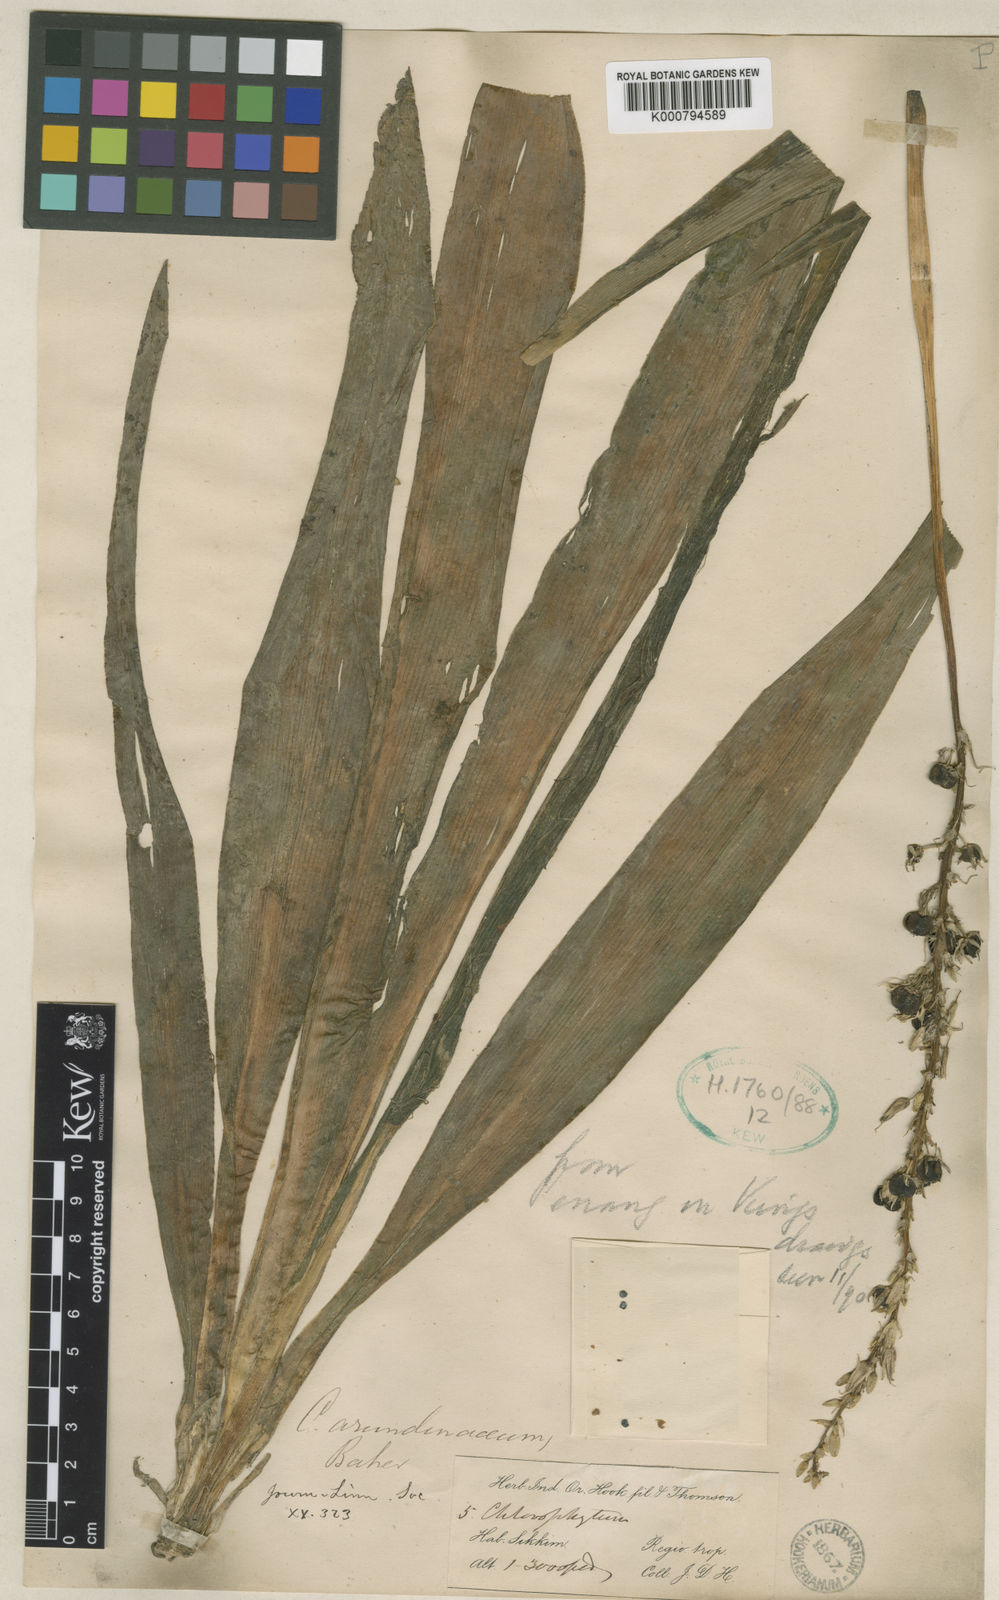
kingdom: Plantae
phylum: Tracheophyta
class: Liliopsida
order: Asparagales
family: Asparagaceae
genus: Chlorophytum
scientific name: Chlorophytum arundinaceum
